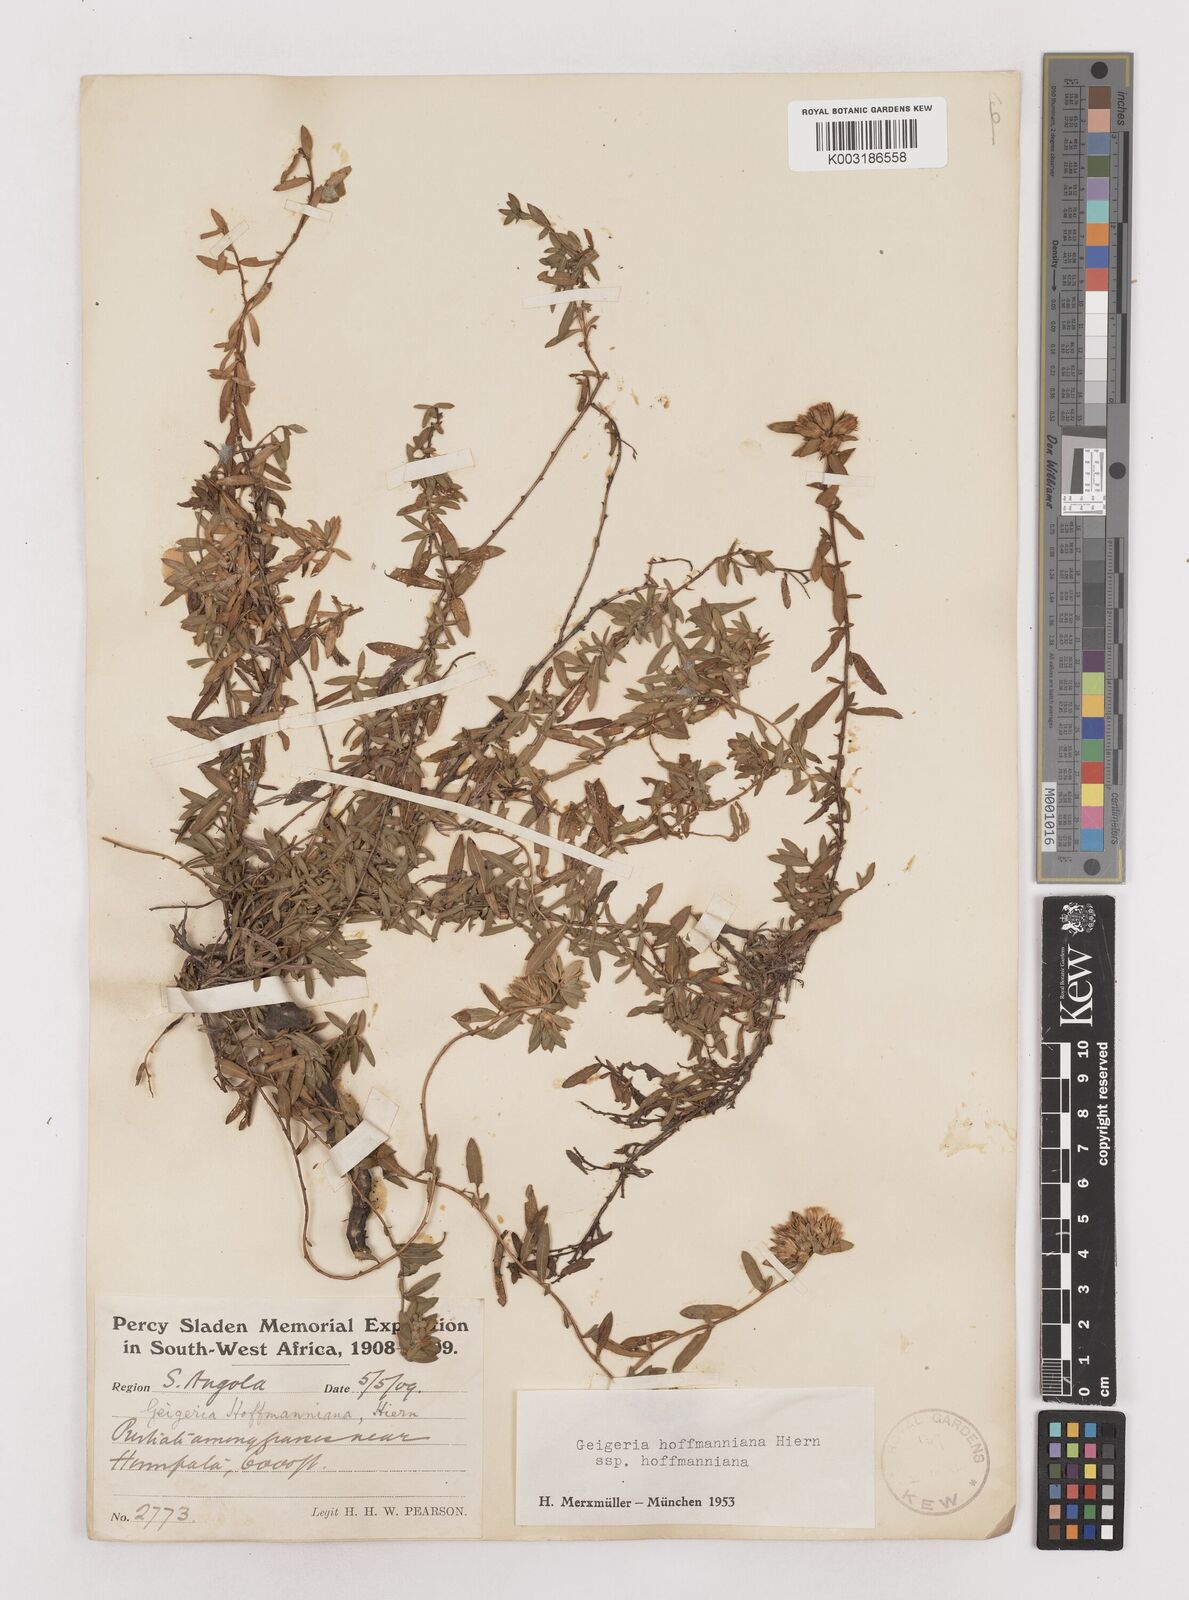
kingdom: Plantae
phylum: Tracheophyta
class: Magnoliopsida
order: Asterales
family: Asteraceae
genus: Geigeria
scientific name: Geigeria hoffmanniana
